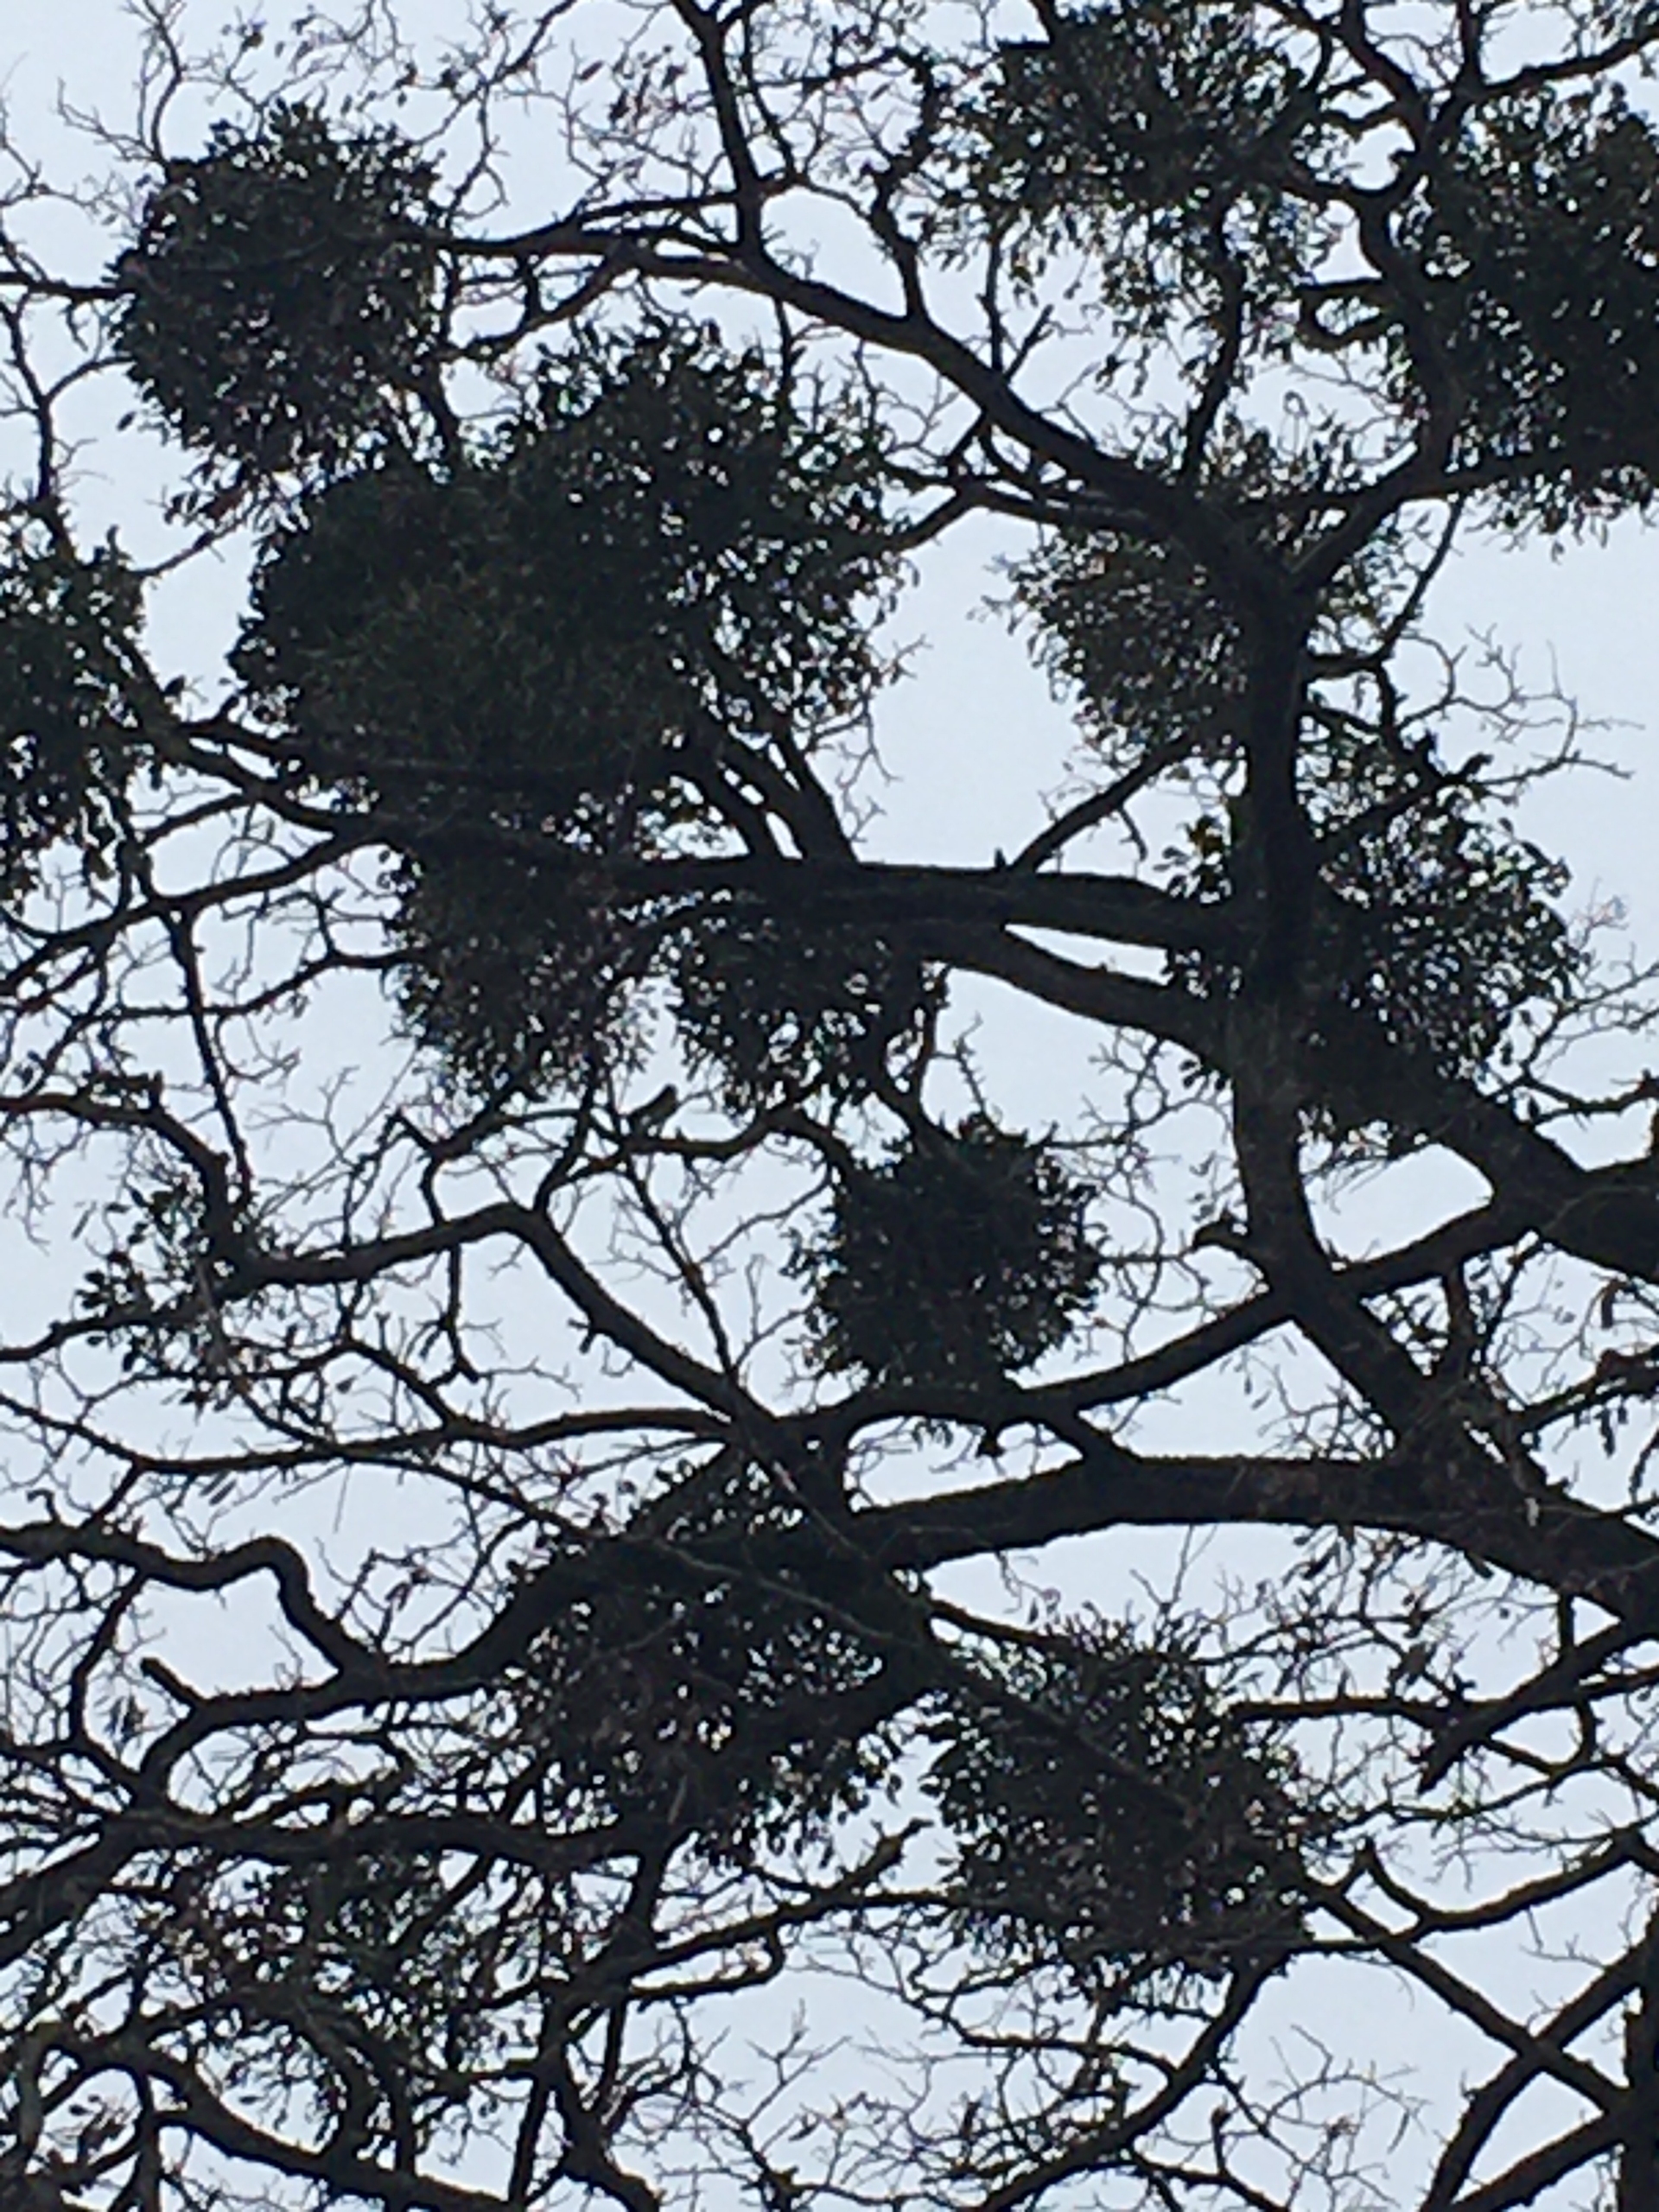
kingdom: Plantae
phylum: Tracheophyta
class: Magnoliopsida
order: Santalales
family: Viscaceae
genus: Viscum
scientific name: Viscum album
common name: Mistelten
